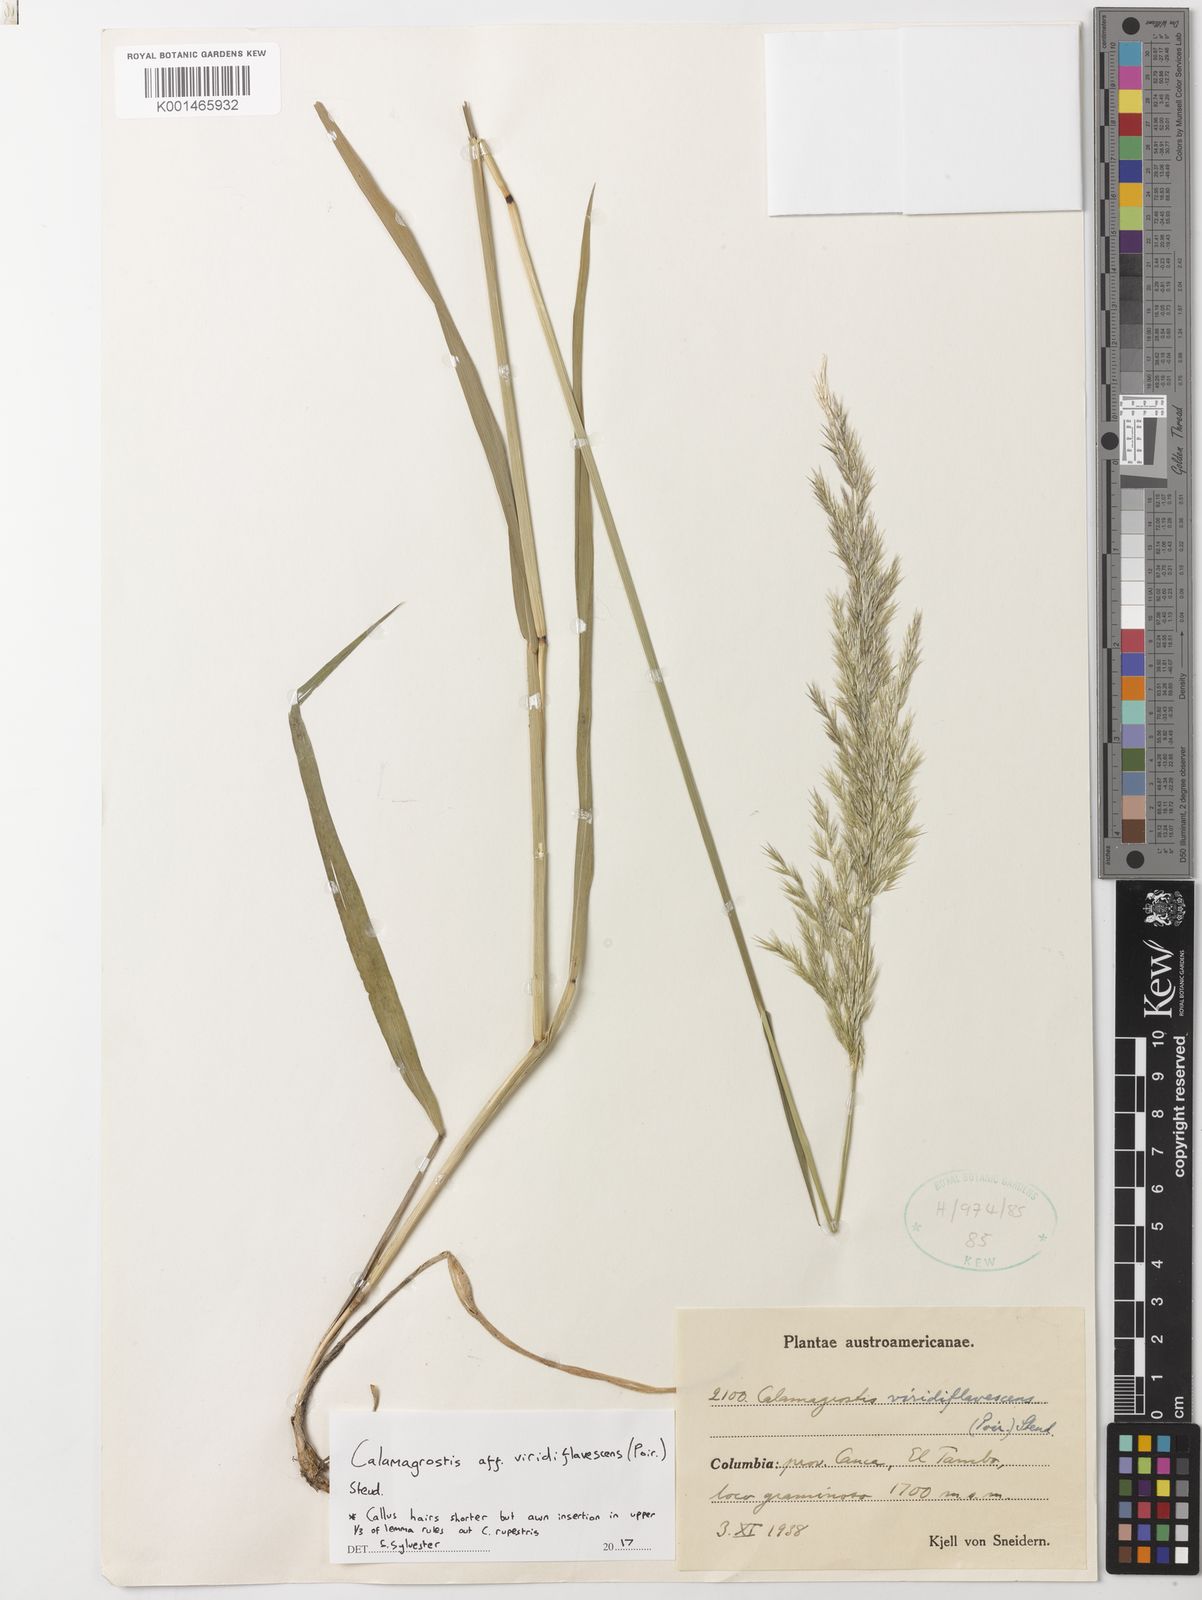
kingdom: Plantae
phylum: Tracheophyta
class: Liliopsida
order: Poales
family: Poaceae
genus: Cinnagrostis
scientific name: Cinnagrostis viridiflavescens
